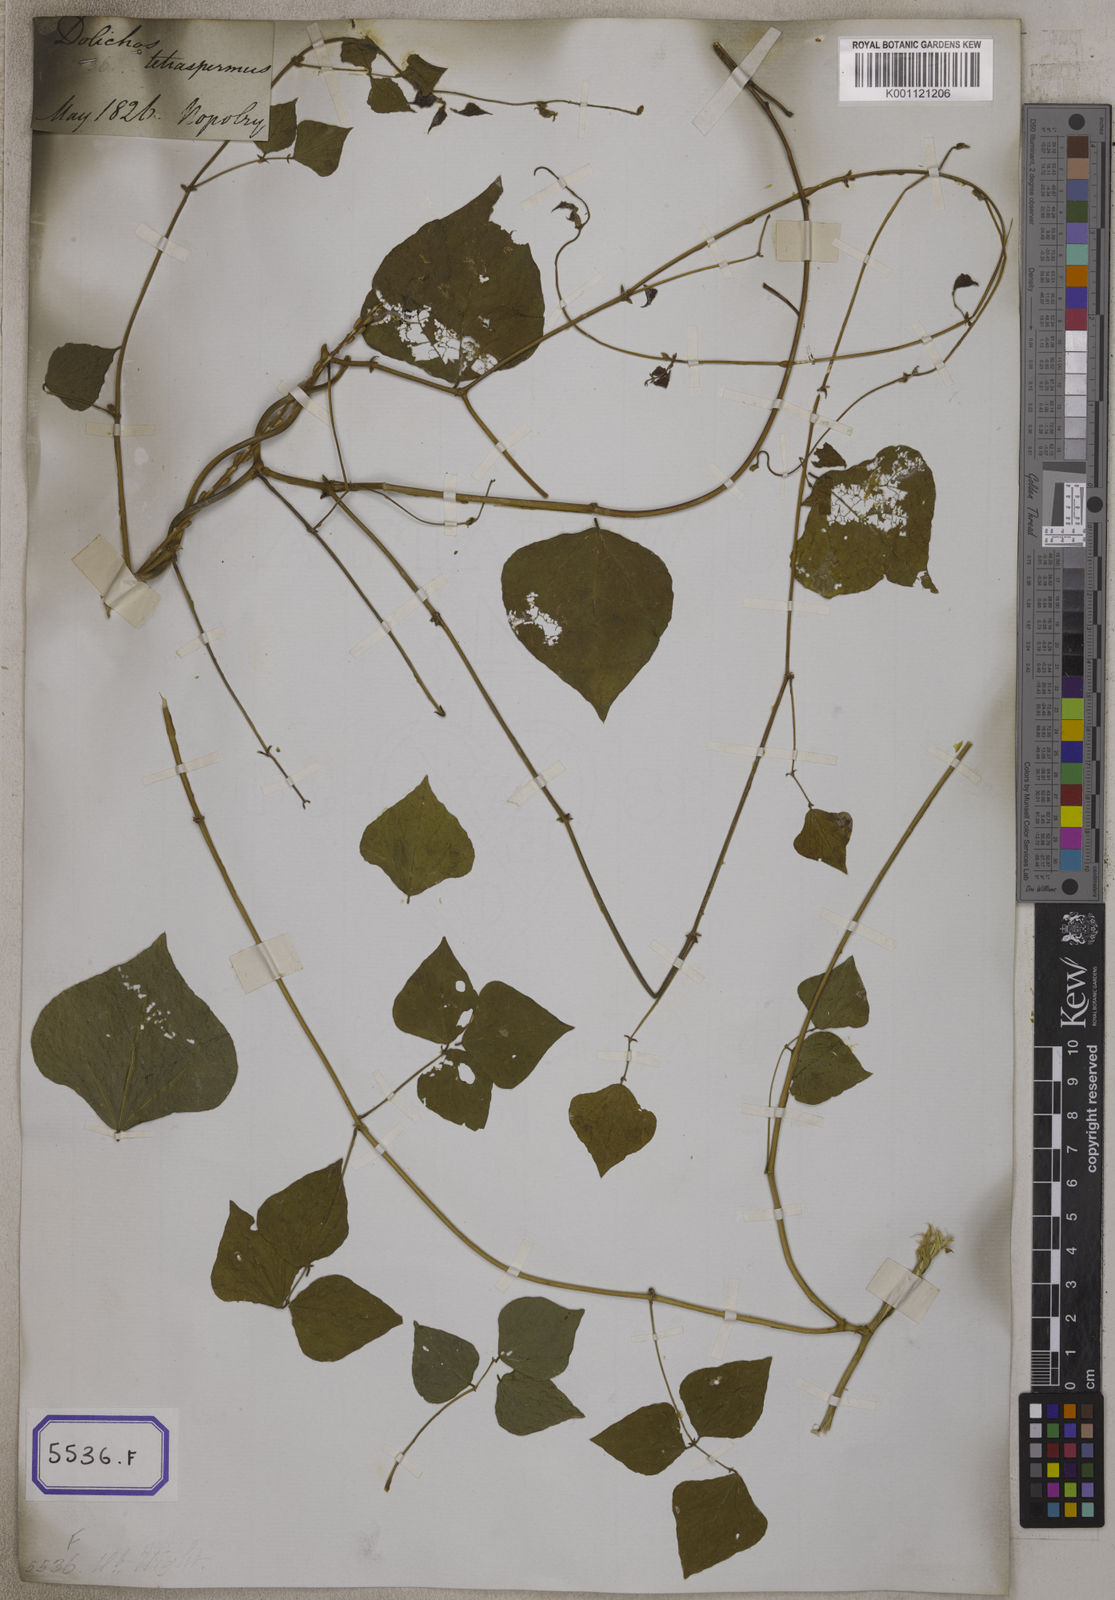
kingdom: Plantae
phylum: Tracheophyta
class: Magnoliopsida
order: Fabales
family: Fabaceae
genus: Lablab
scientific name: Lablab purpureus
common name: Lablab-bean
